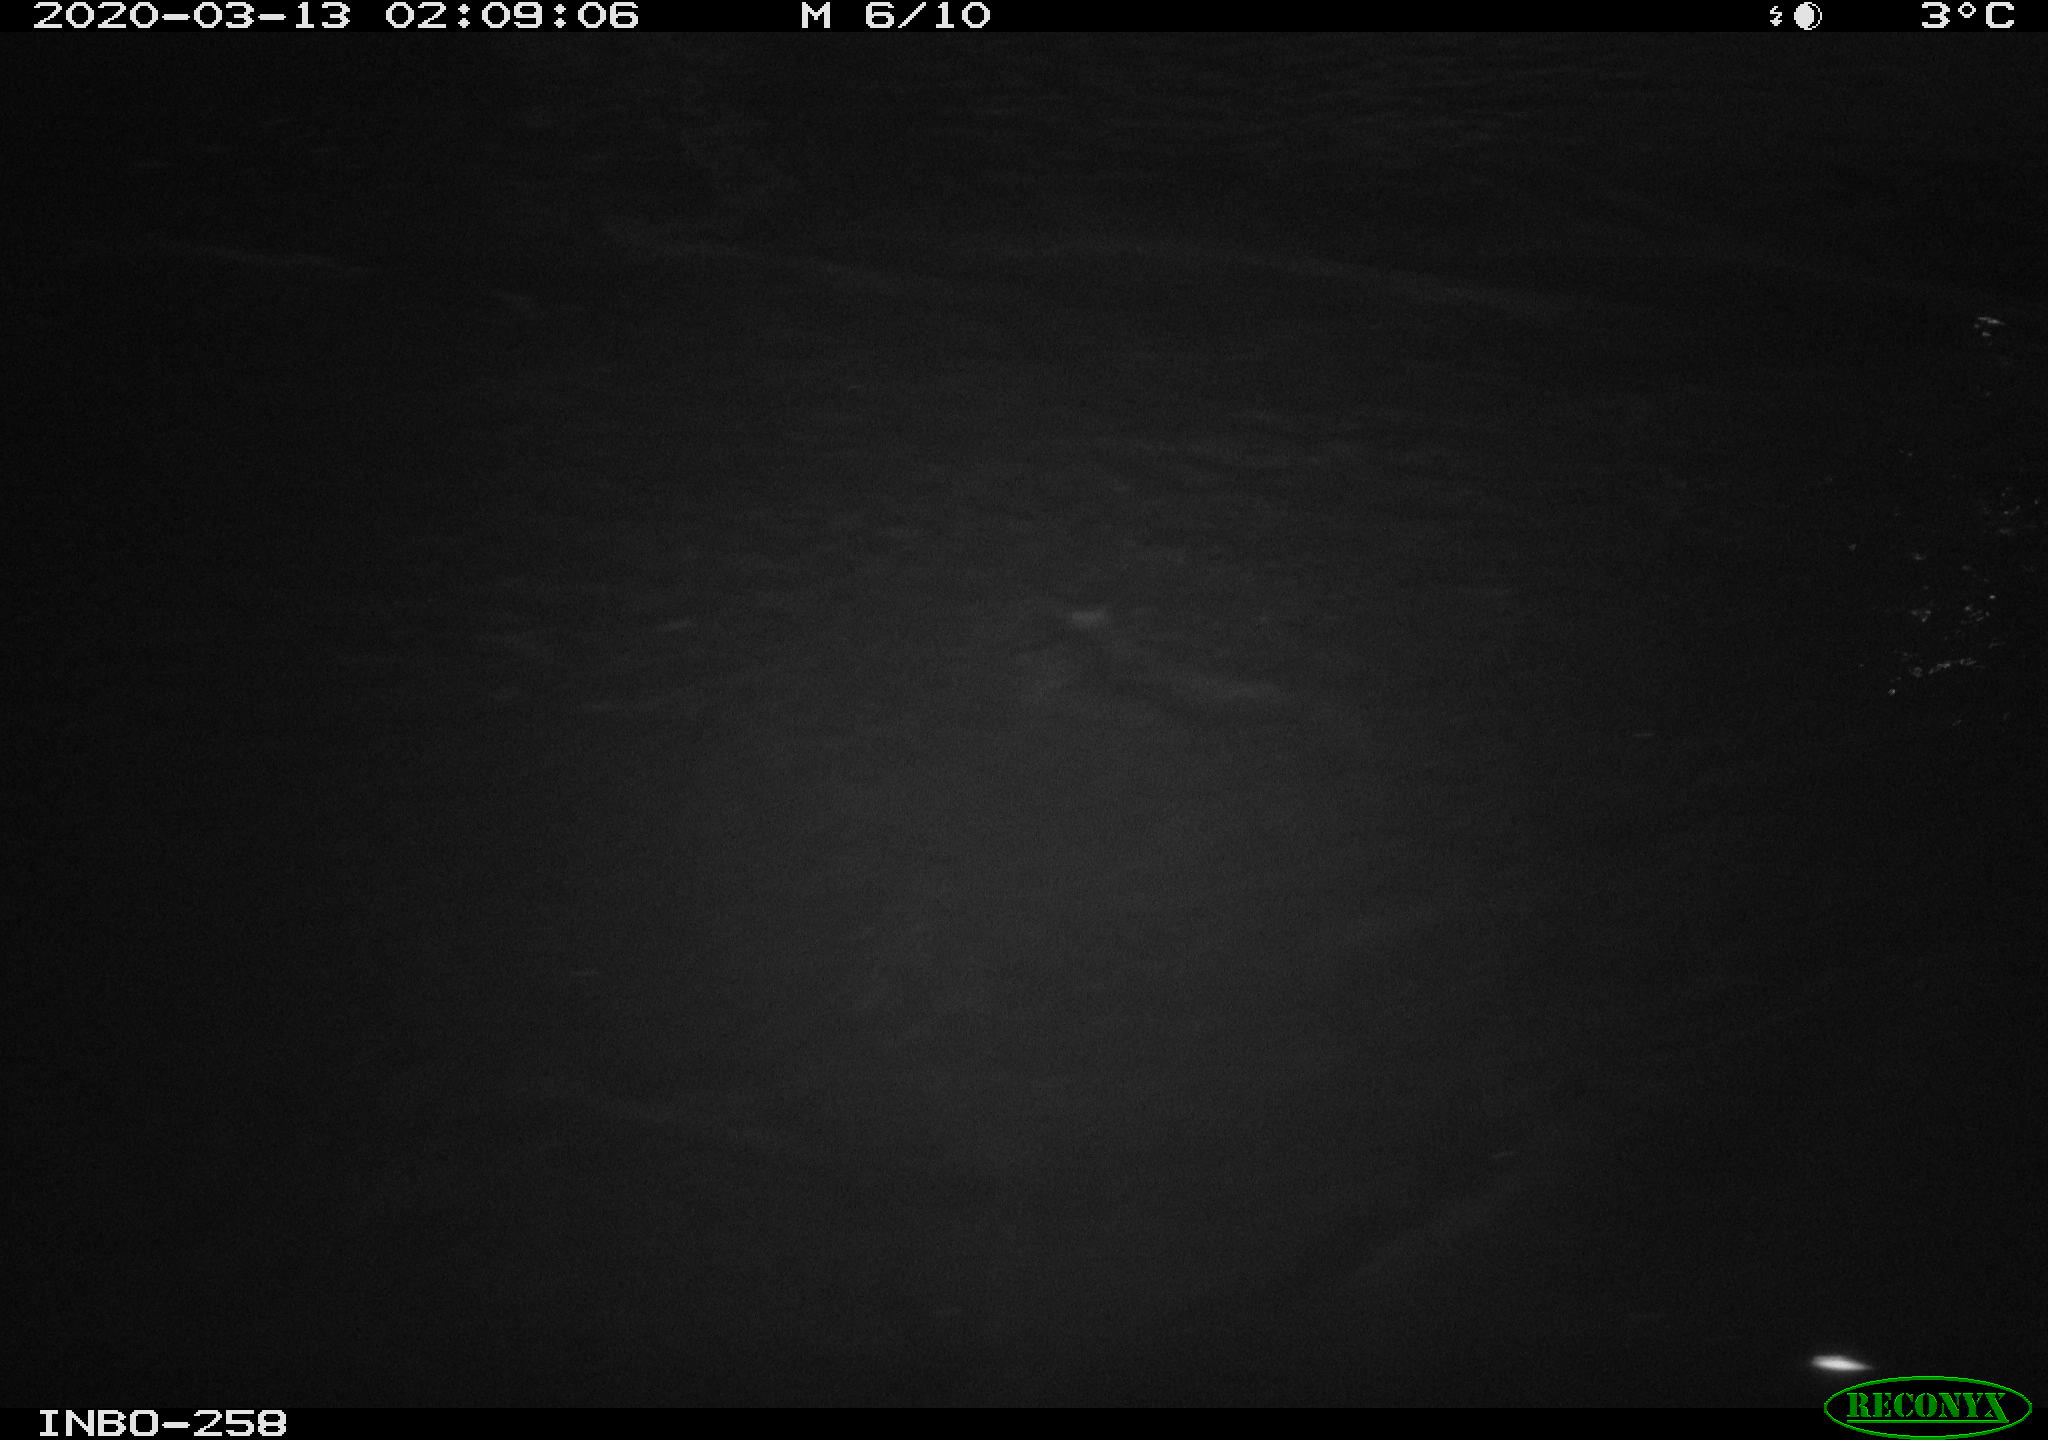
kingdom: Animalia
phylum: Chordata
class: Aves
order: Anseriformes
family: Anatidae
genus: Anas
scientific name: Anas platyrhynchos
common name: Mallard
